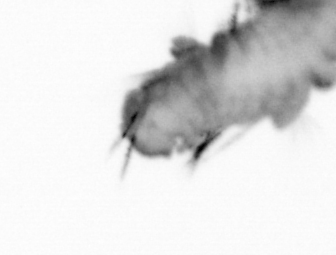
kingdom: Animalia
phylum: Annelida
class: Polychaeta
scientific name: Polychaeta
